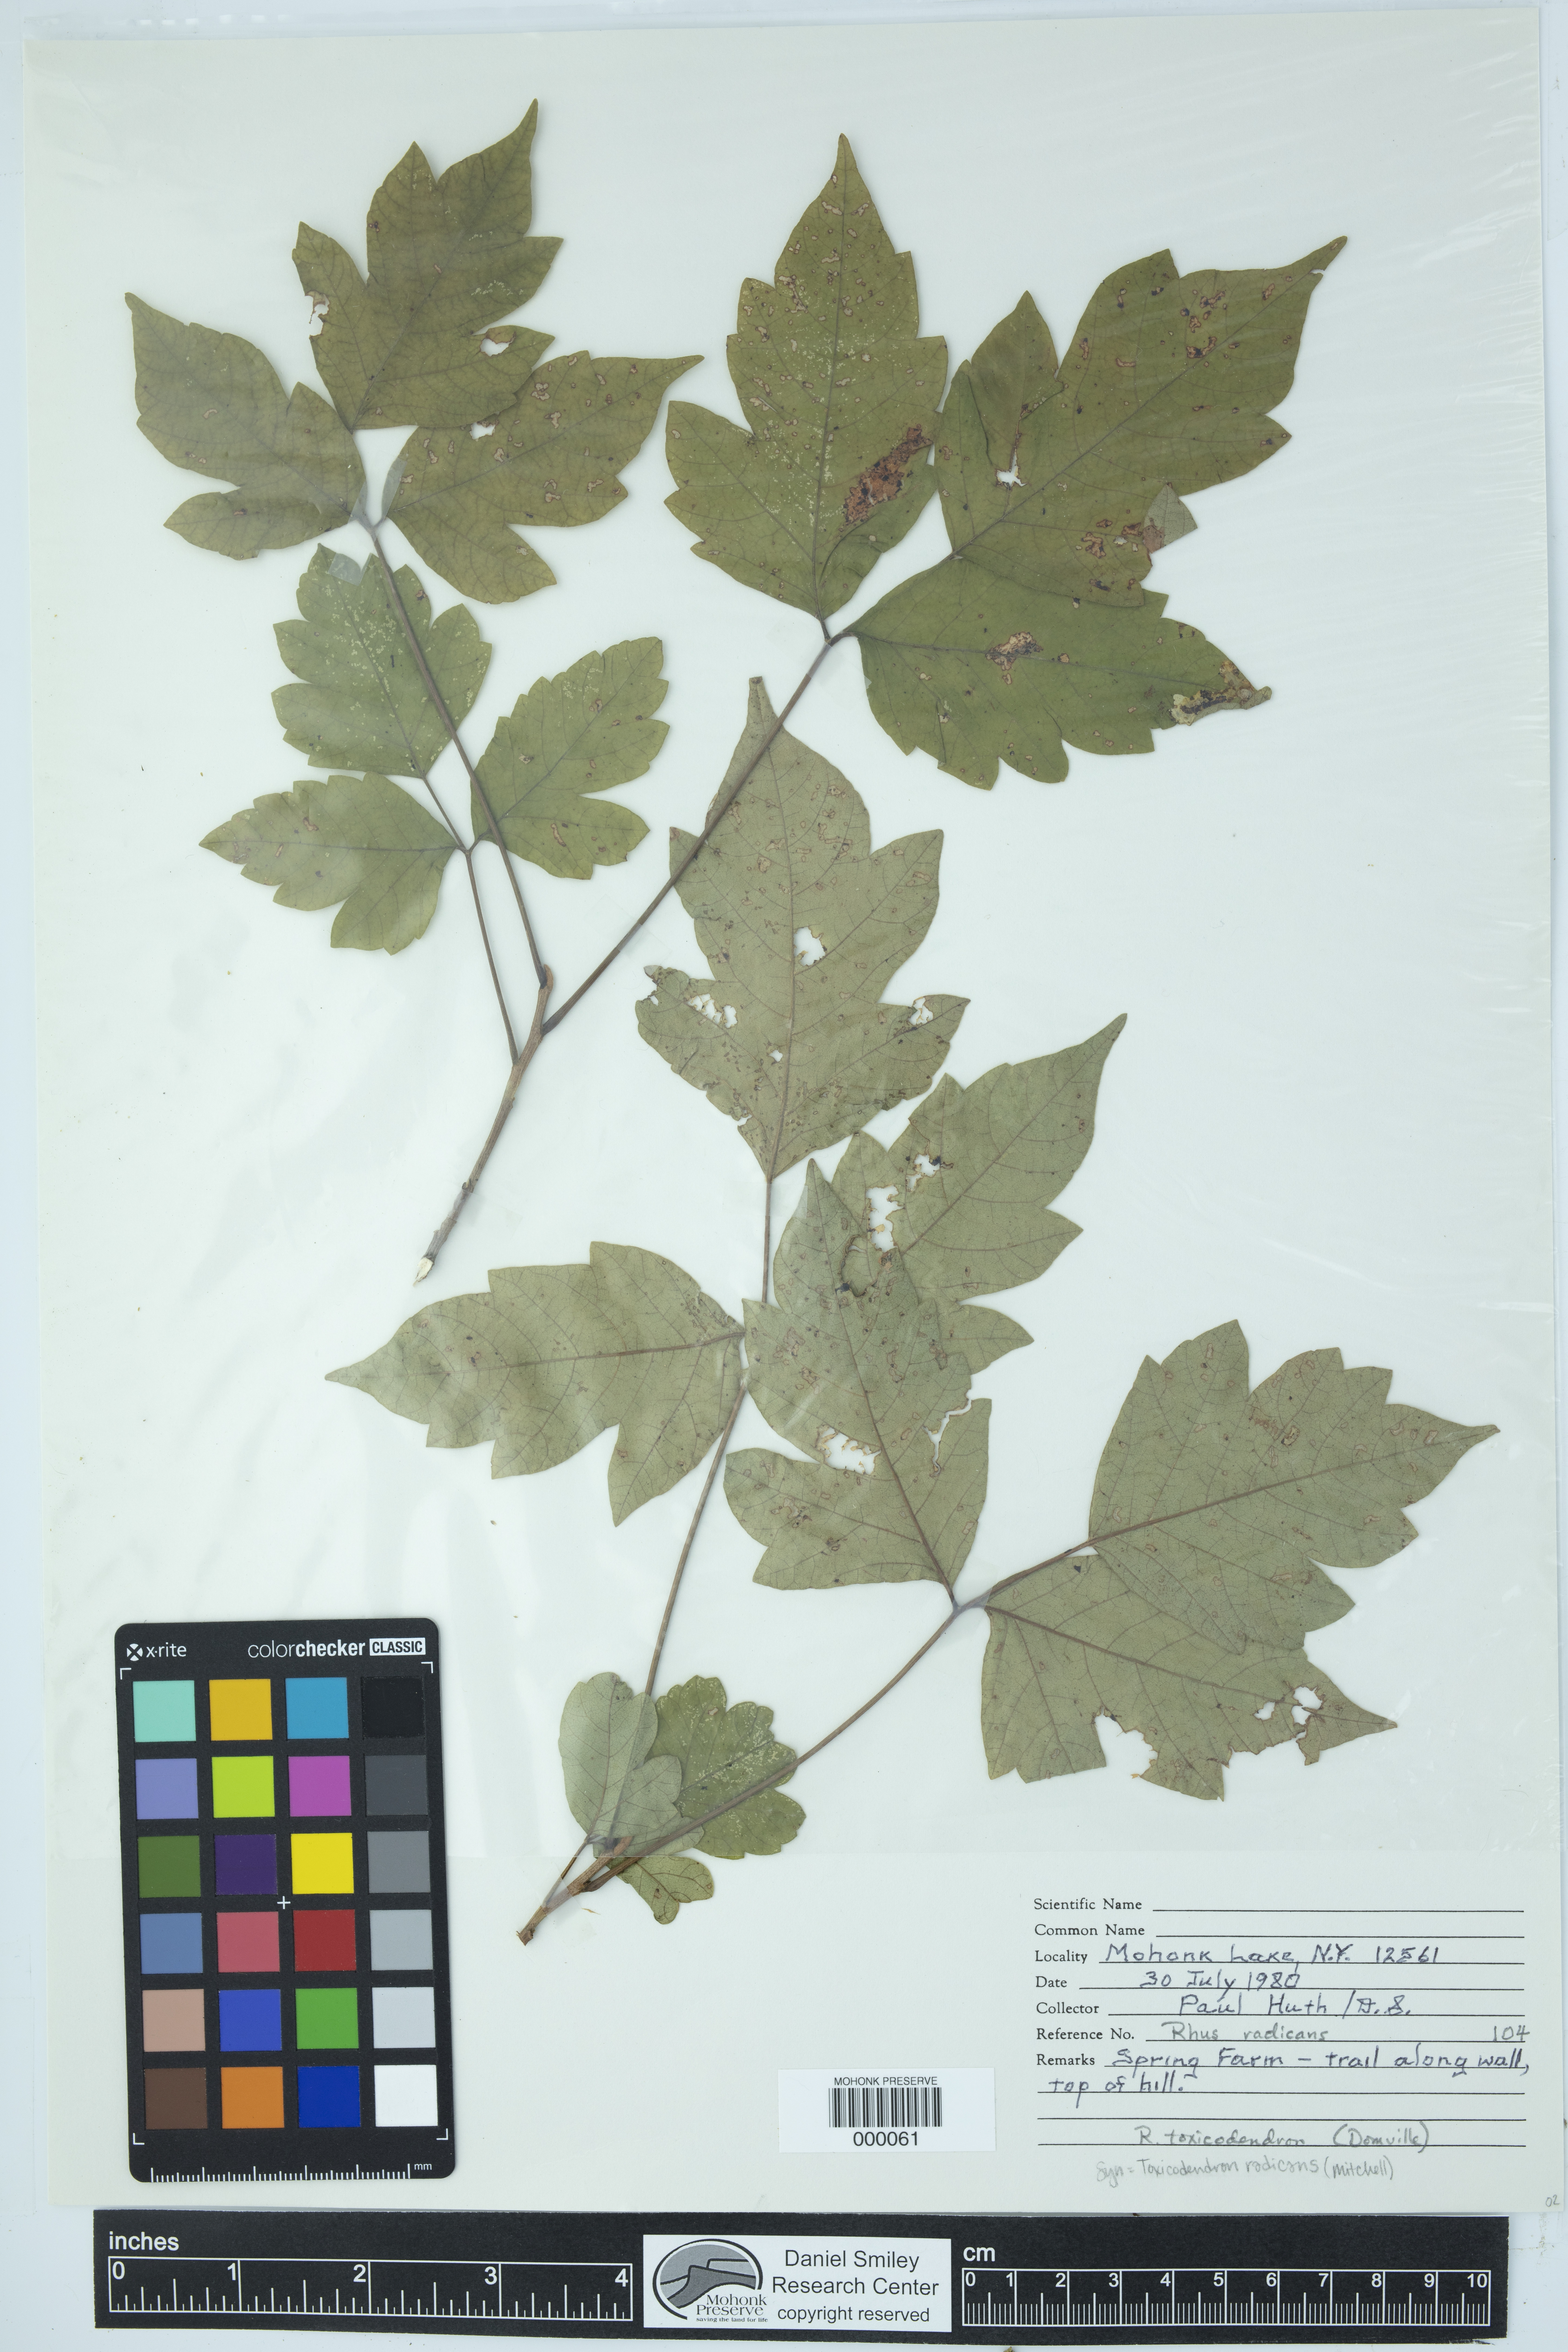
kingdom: Plantae
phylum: Tracheophyta
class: Magnoliopsida
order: Sapindales
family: Anacardiaceae
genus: Toxicodendron
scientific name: Toxicodendron radicans
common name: Poison ivy
